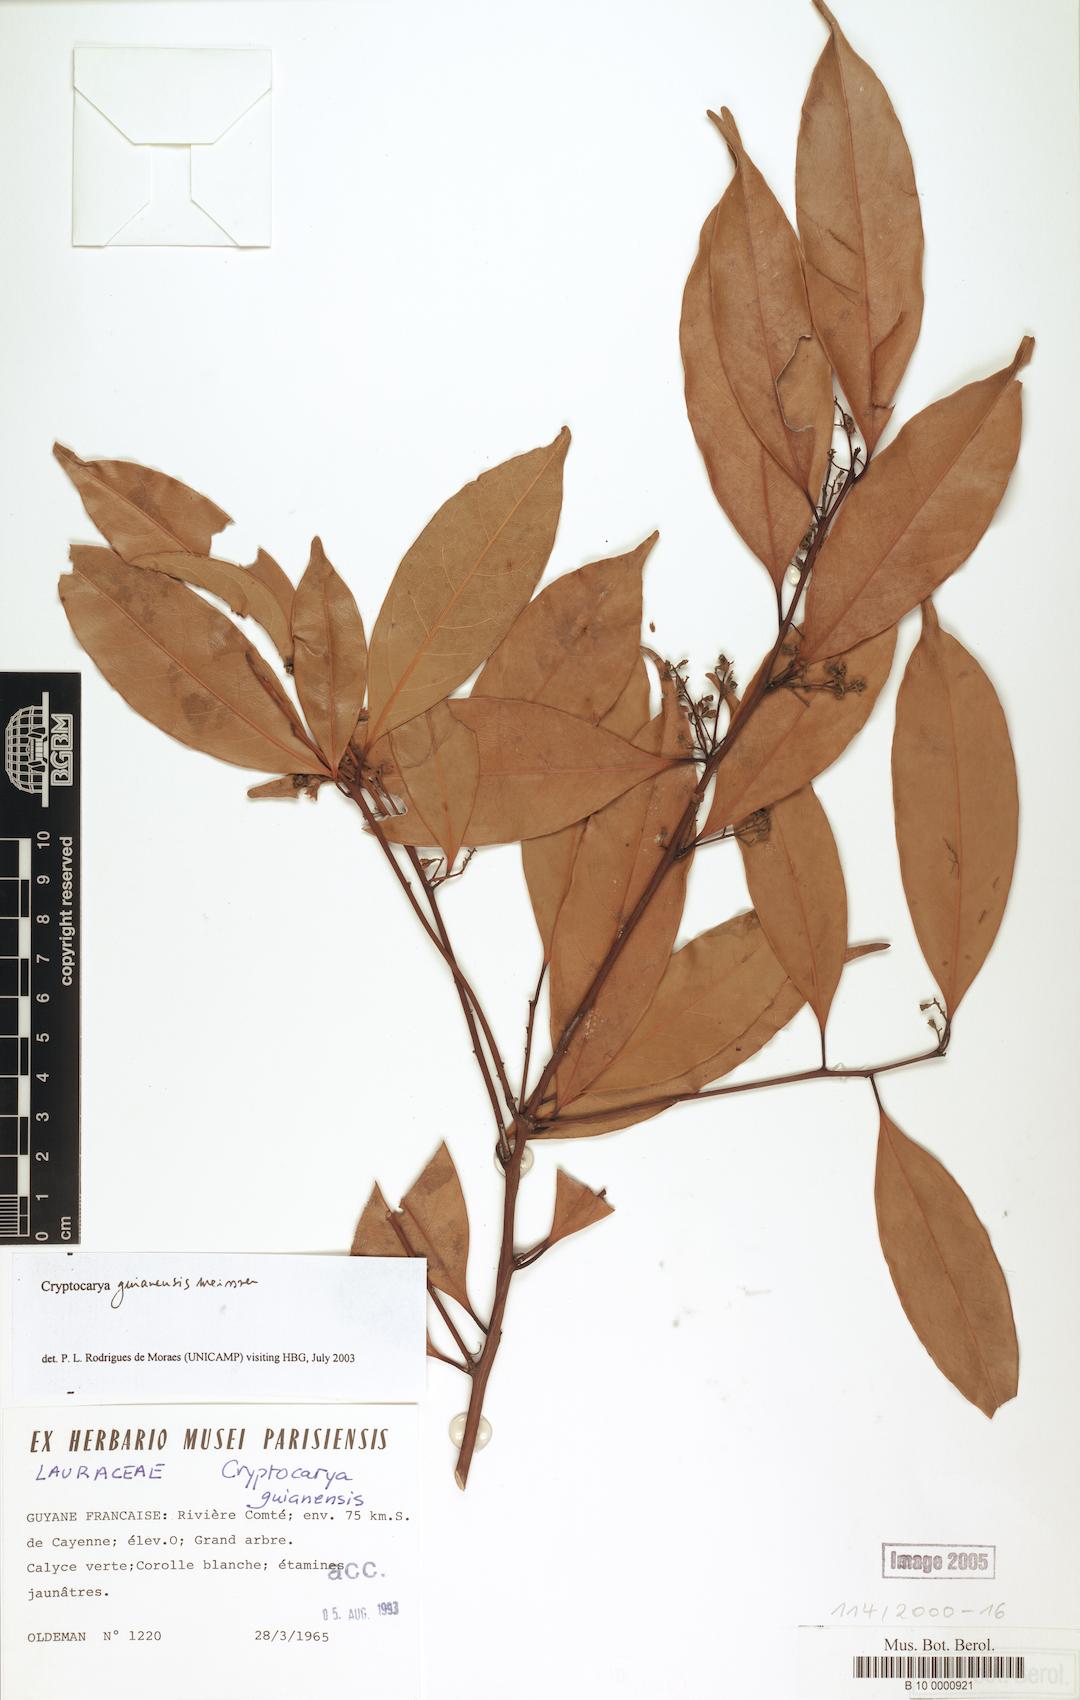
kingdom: Plantae
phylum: Tracheophyta
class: Magnoliopsida
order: Laurales
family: Lauraceae
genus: Cryptocarya
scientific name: Cryptocarya guianensis
